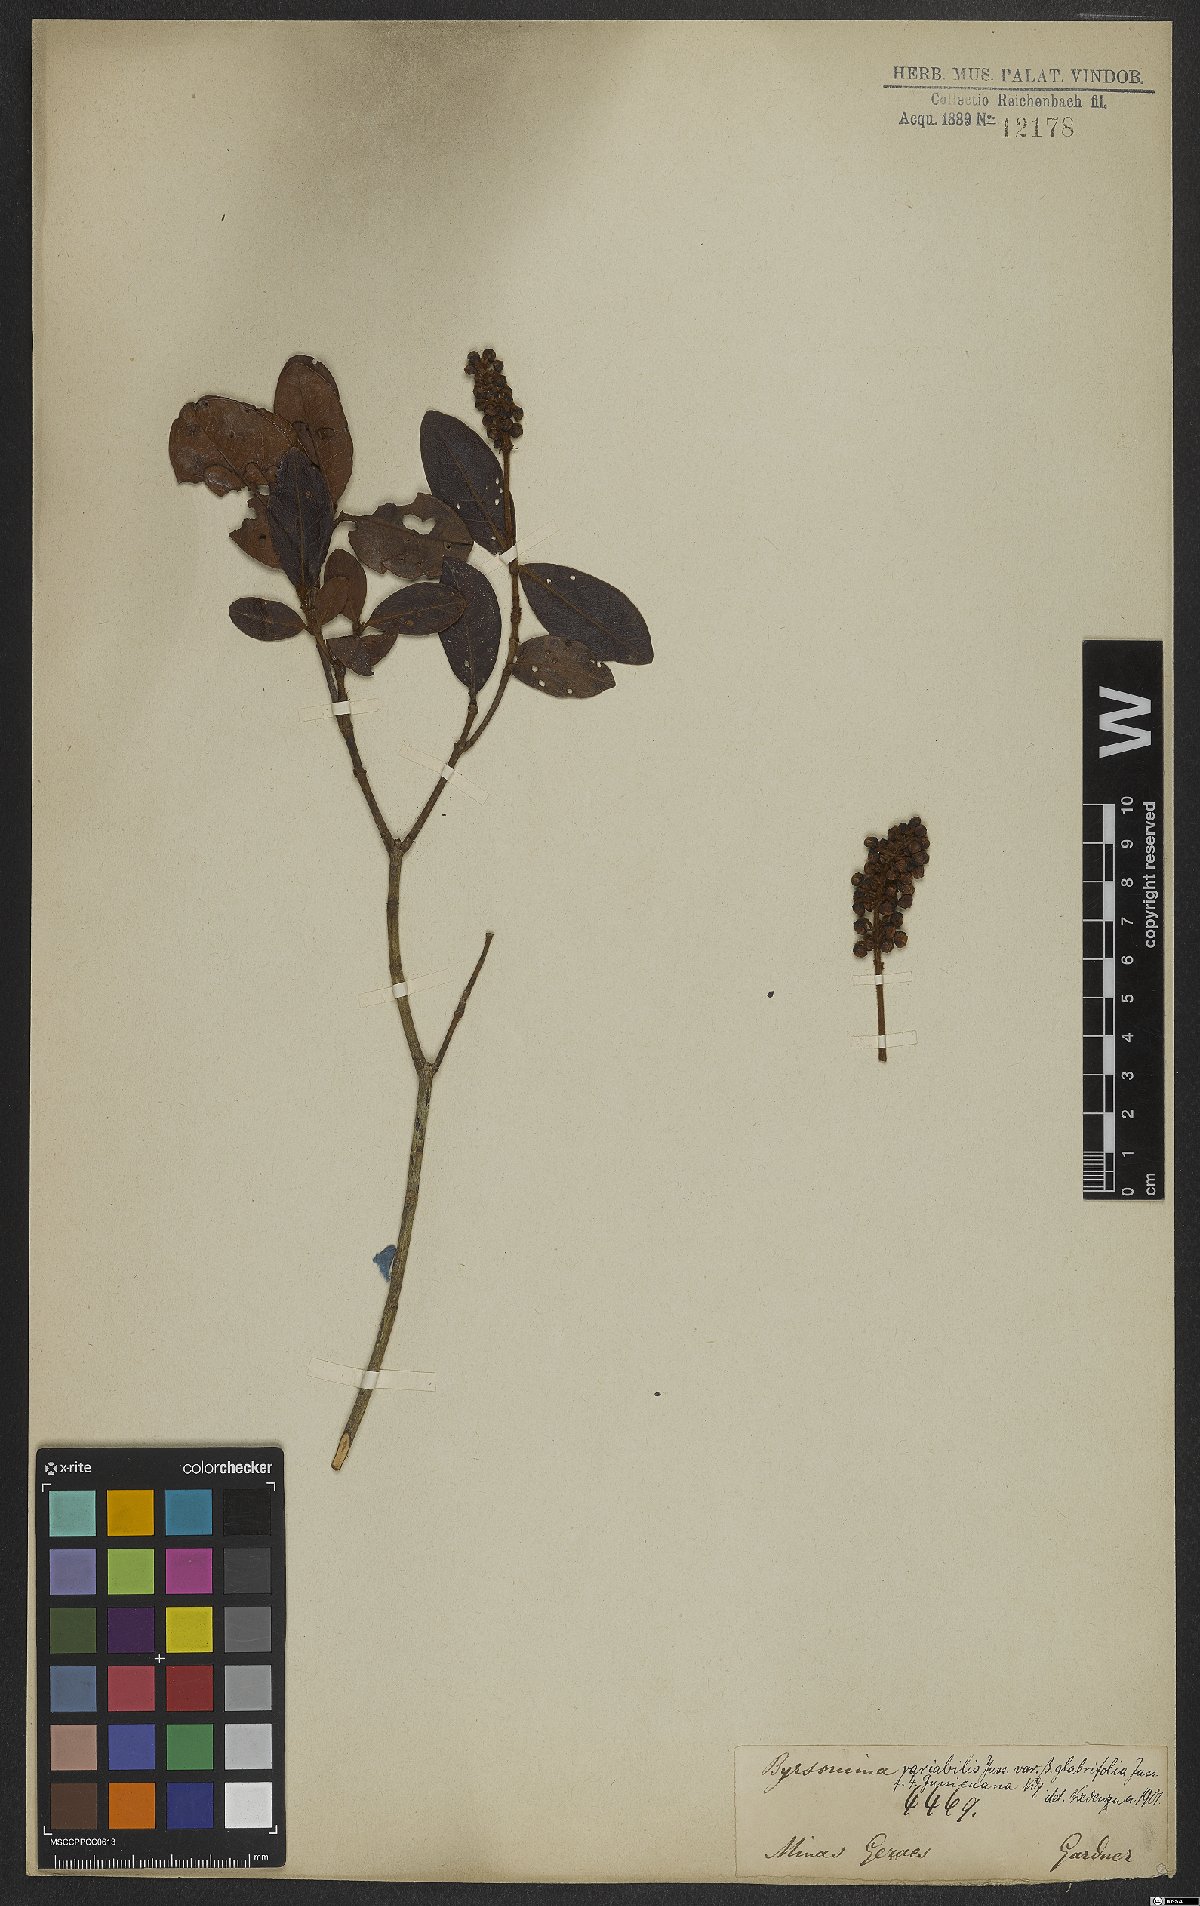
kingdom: Plantae
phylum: Tracheophyta
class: Magnoliopsida
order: Malpighiales
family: Malpighiaceae
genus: Byrsonima
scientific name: Byrsonima variabilis
